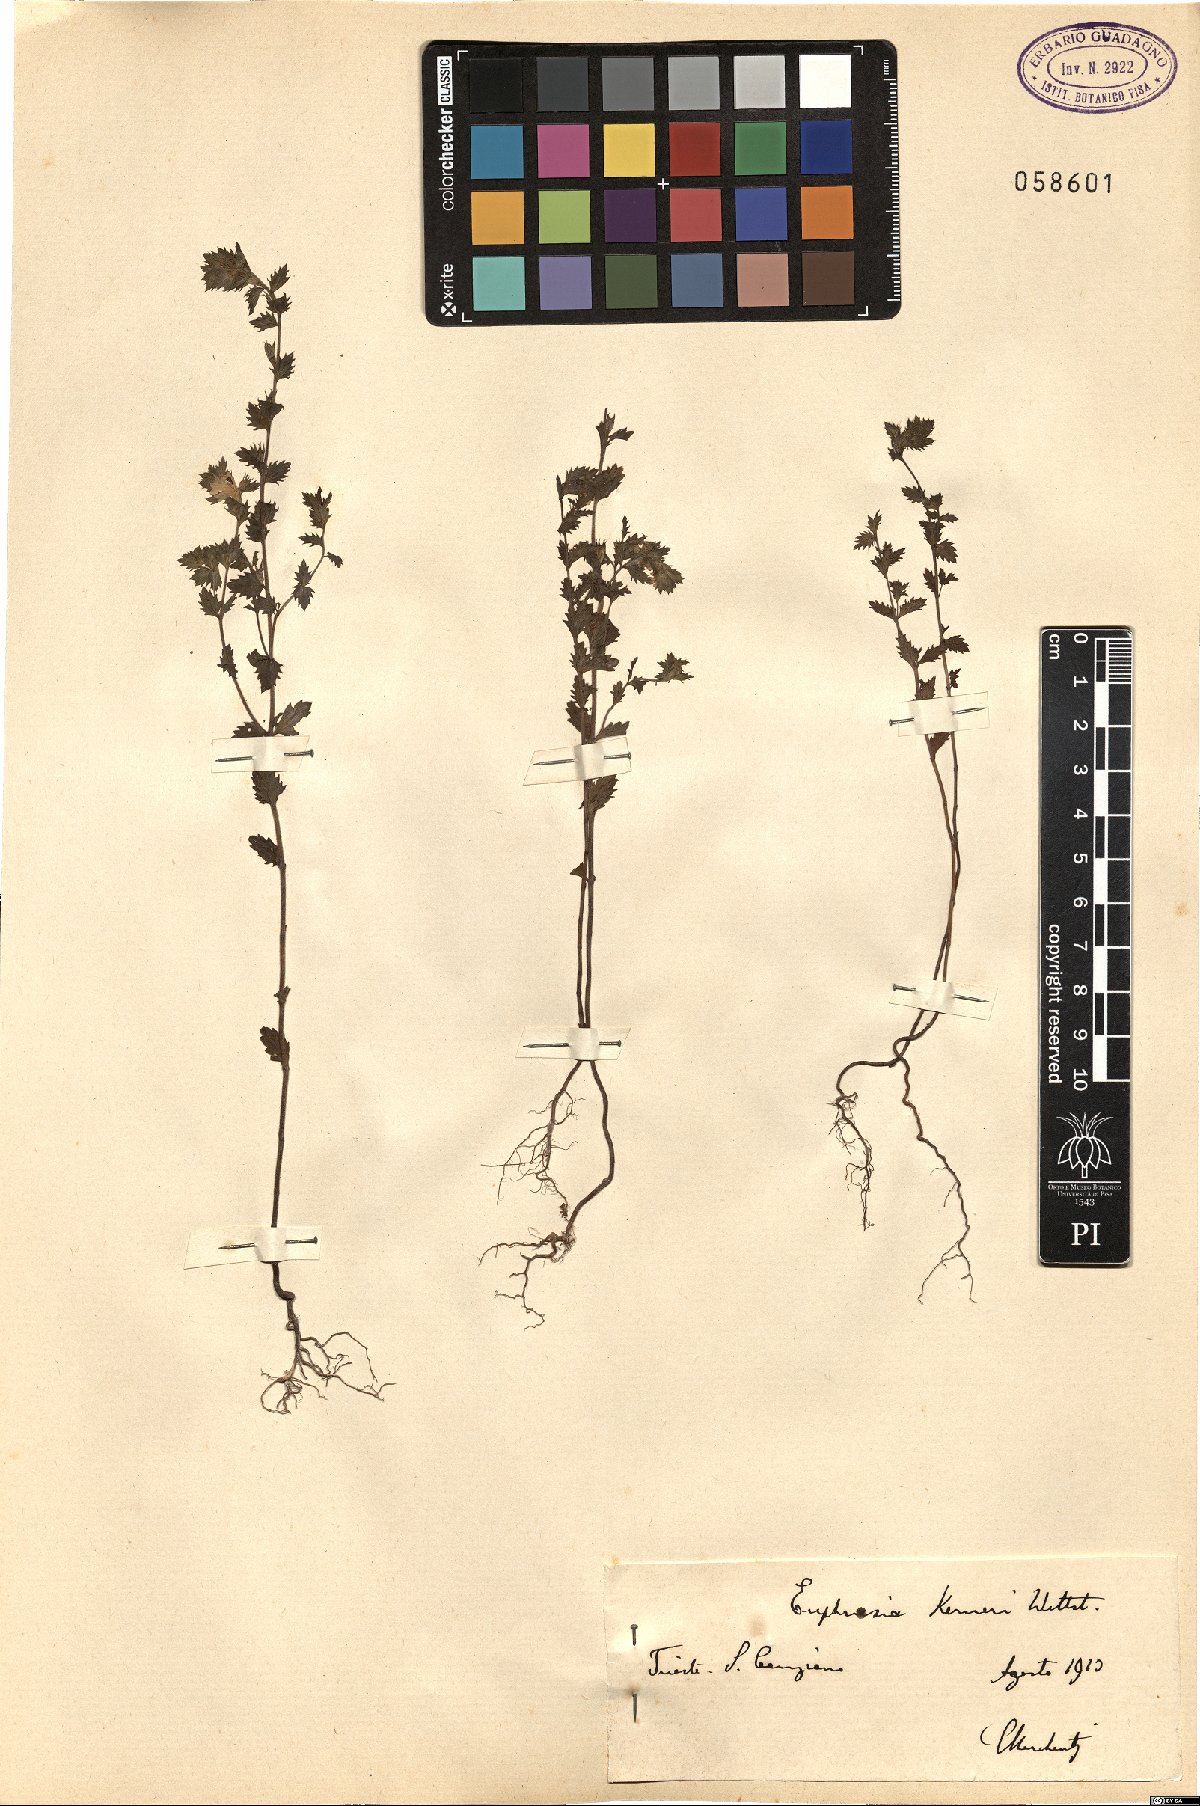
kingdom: Plantae
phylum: Tracheophyta
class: Magnoliopsida
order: Lamiales
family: Orobanchaceae
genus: Euphrasia
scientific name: Euphrasia kerneri
